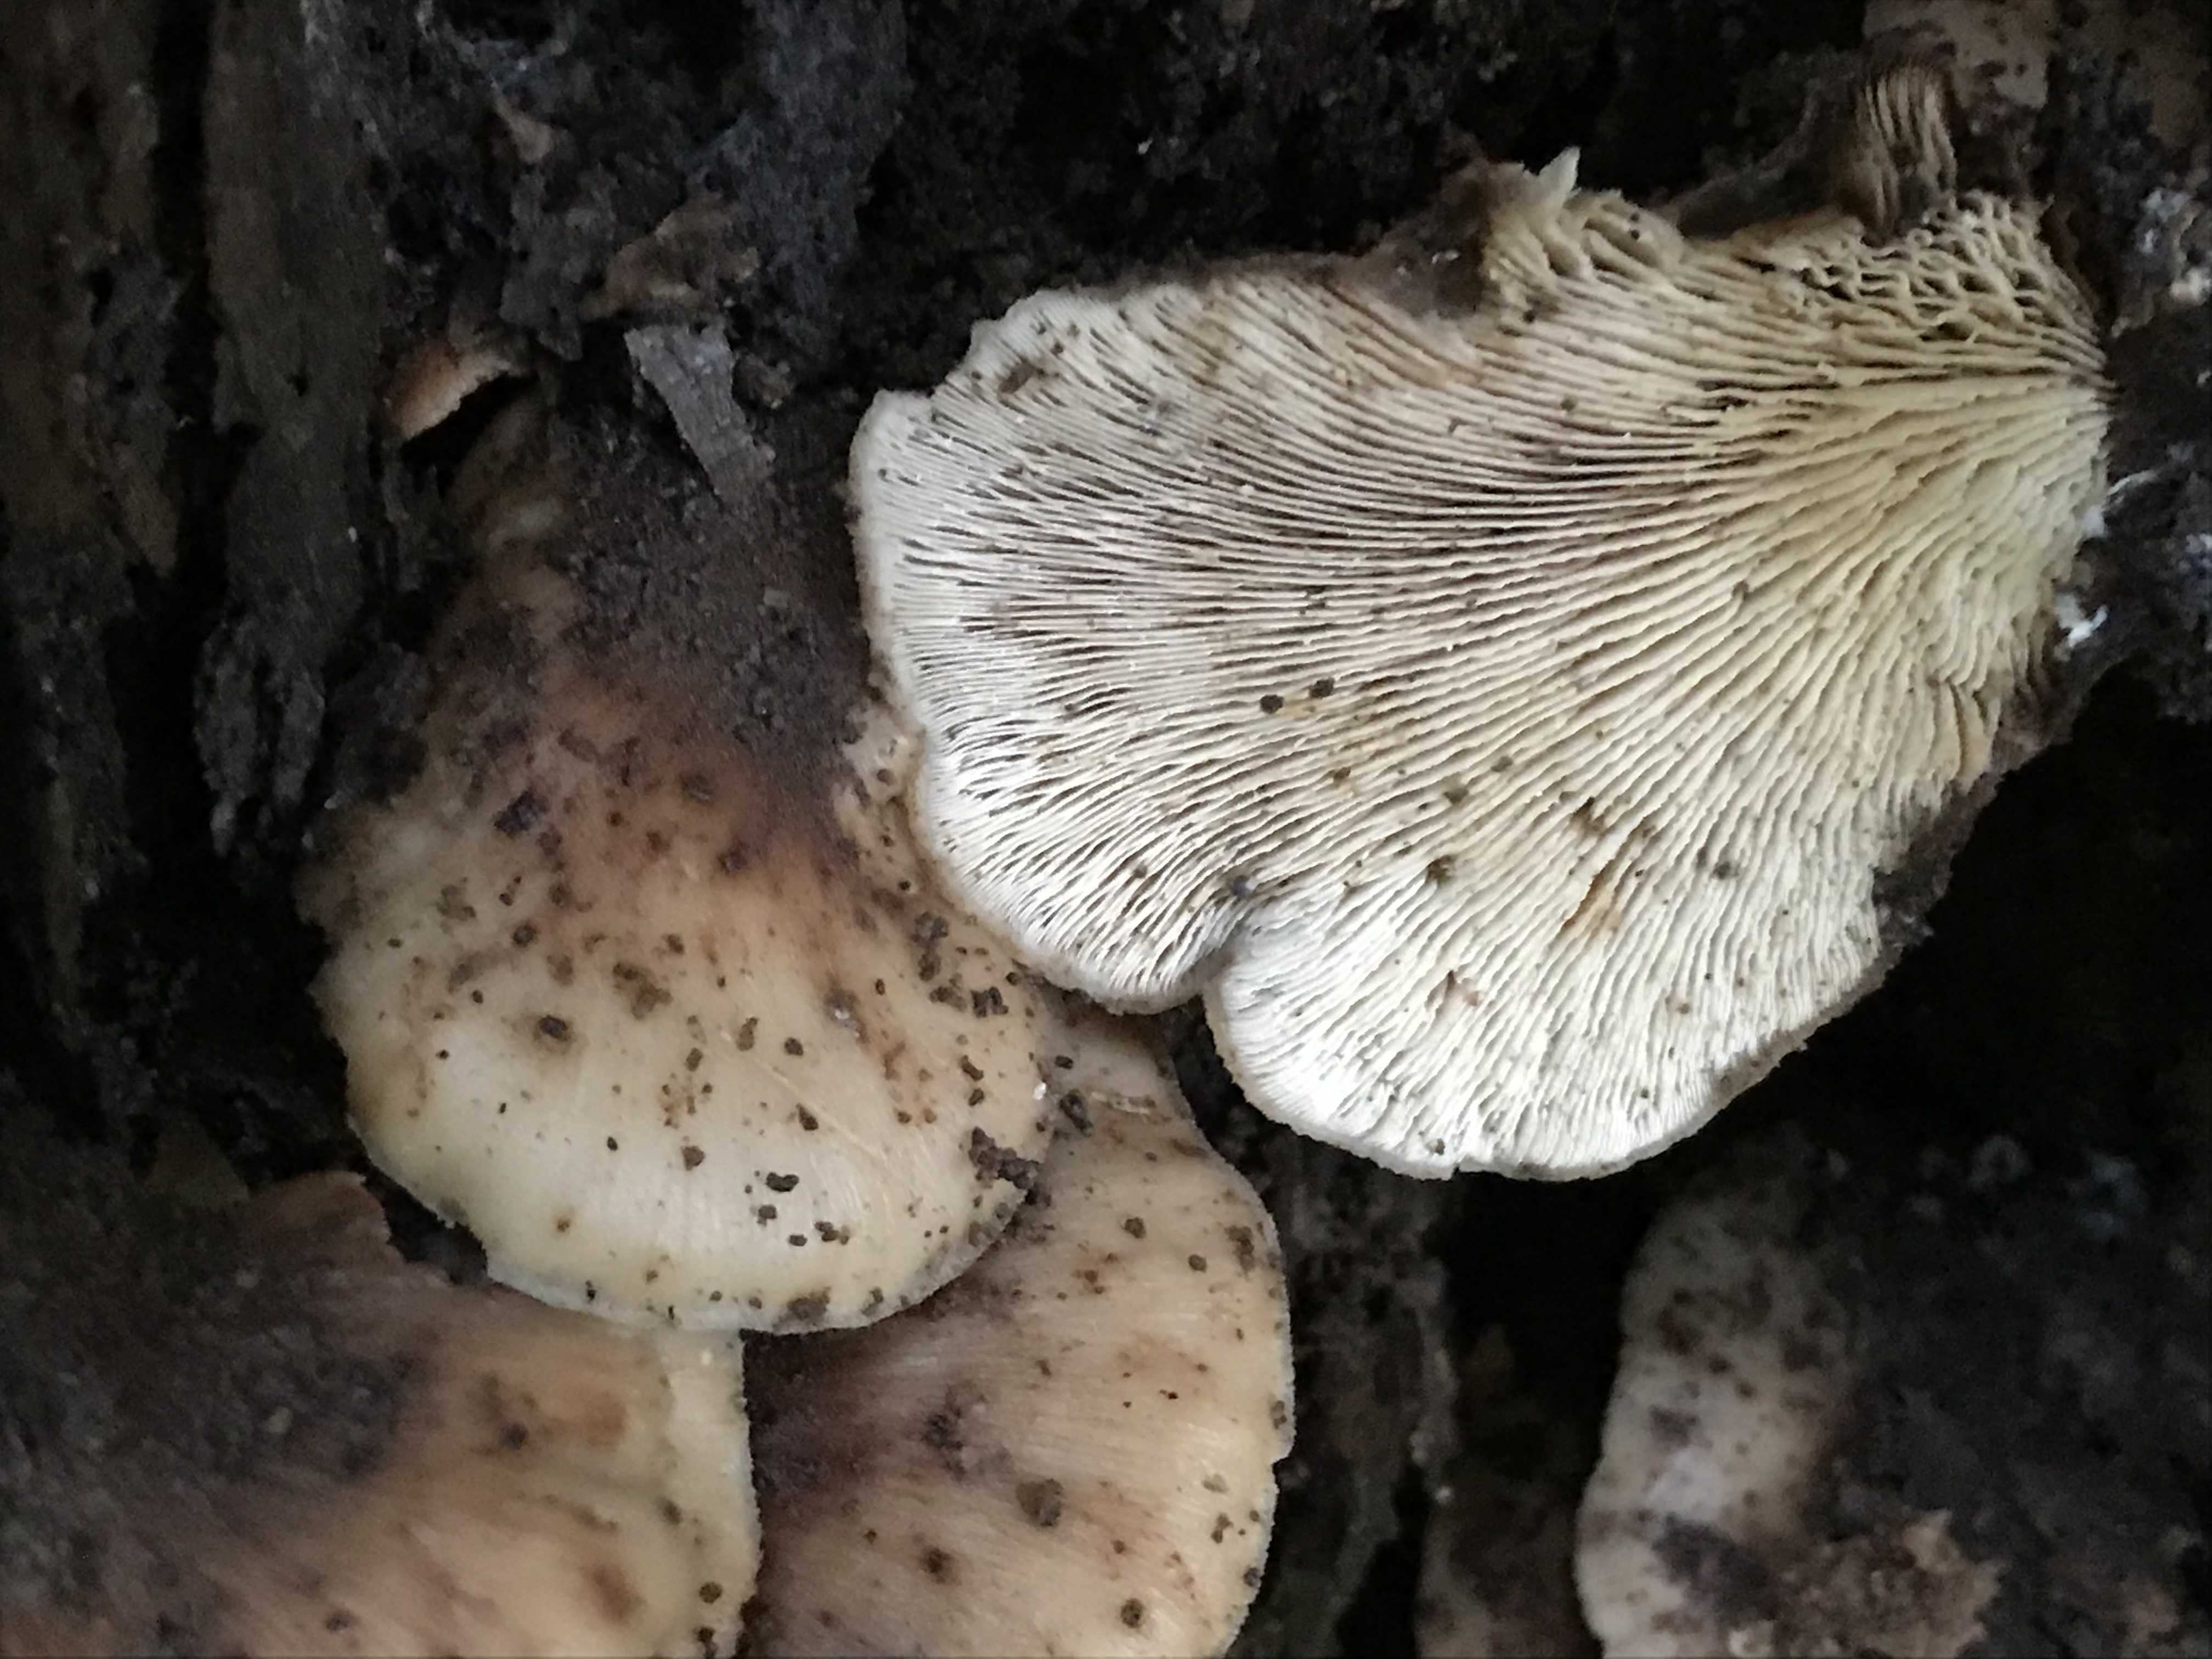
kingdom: Fungi
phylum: Basidiomycota
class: Agaricomycetes
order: Russulales
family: Auriscalpiaceae
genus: Lentinellus
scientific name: Lentinellus ursinus
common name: børstehåret savbladhat
